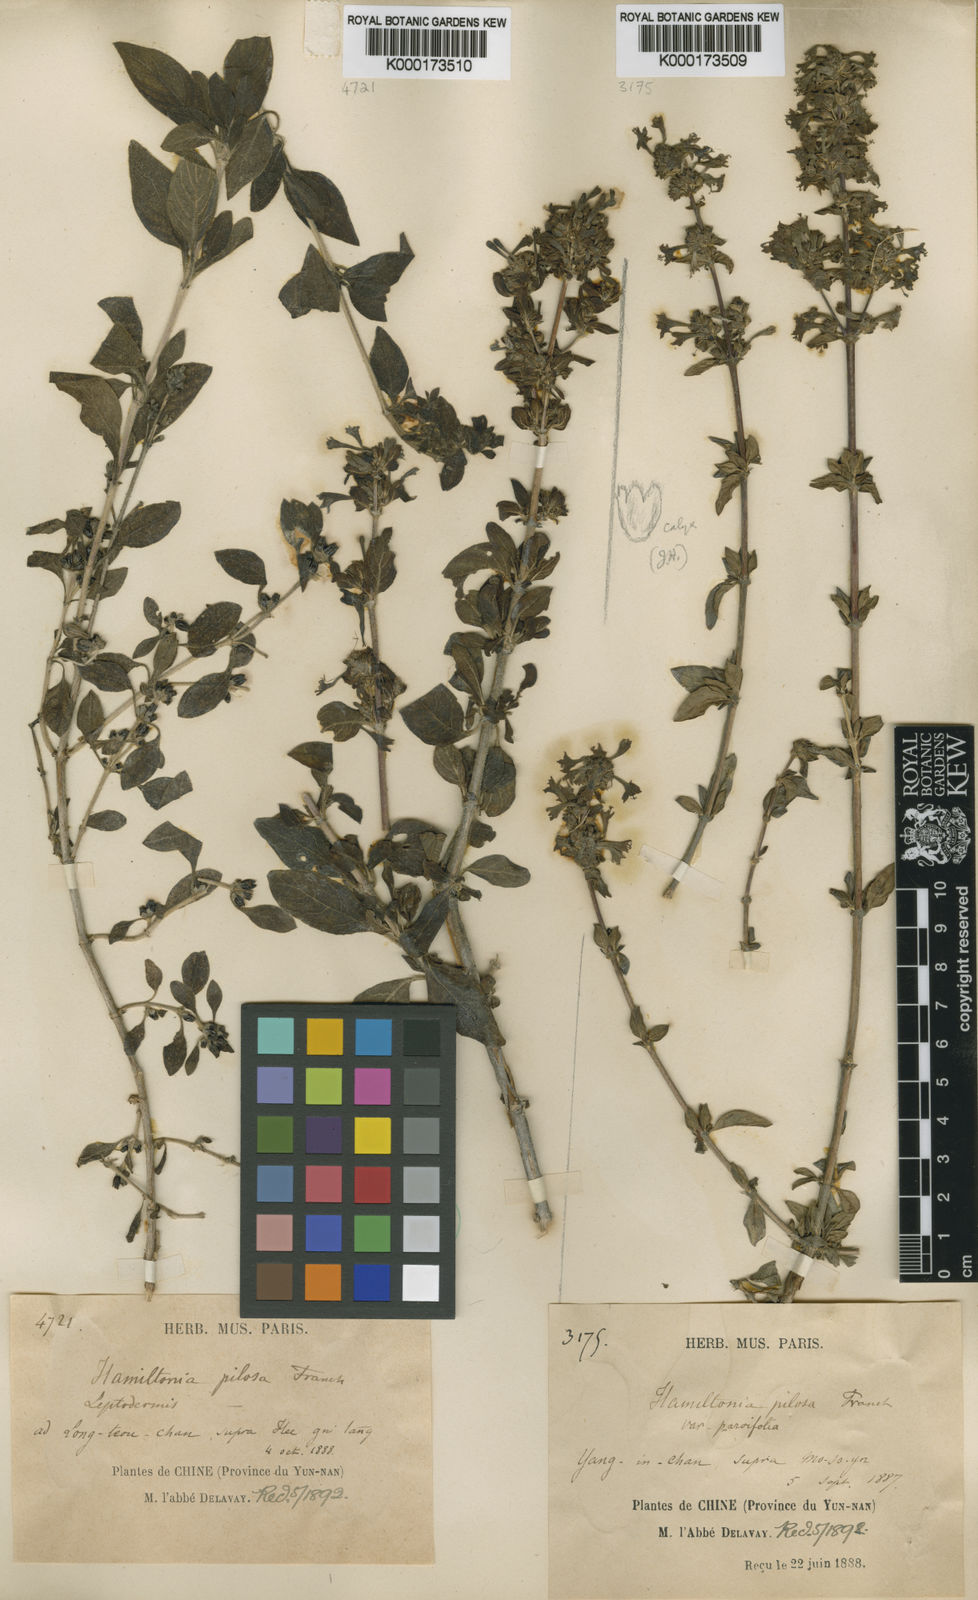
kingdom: Plantae
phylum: Tracheophyta
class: Magnoliopsida
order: Gentianales
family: Rubiaceae
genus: Leptodermis
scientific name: Leptodermis pilosa
